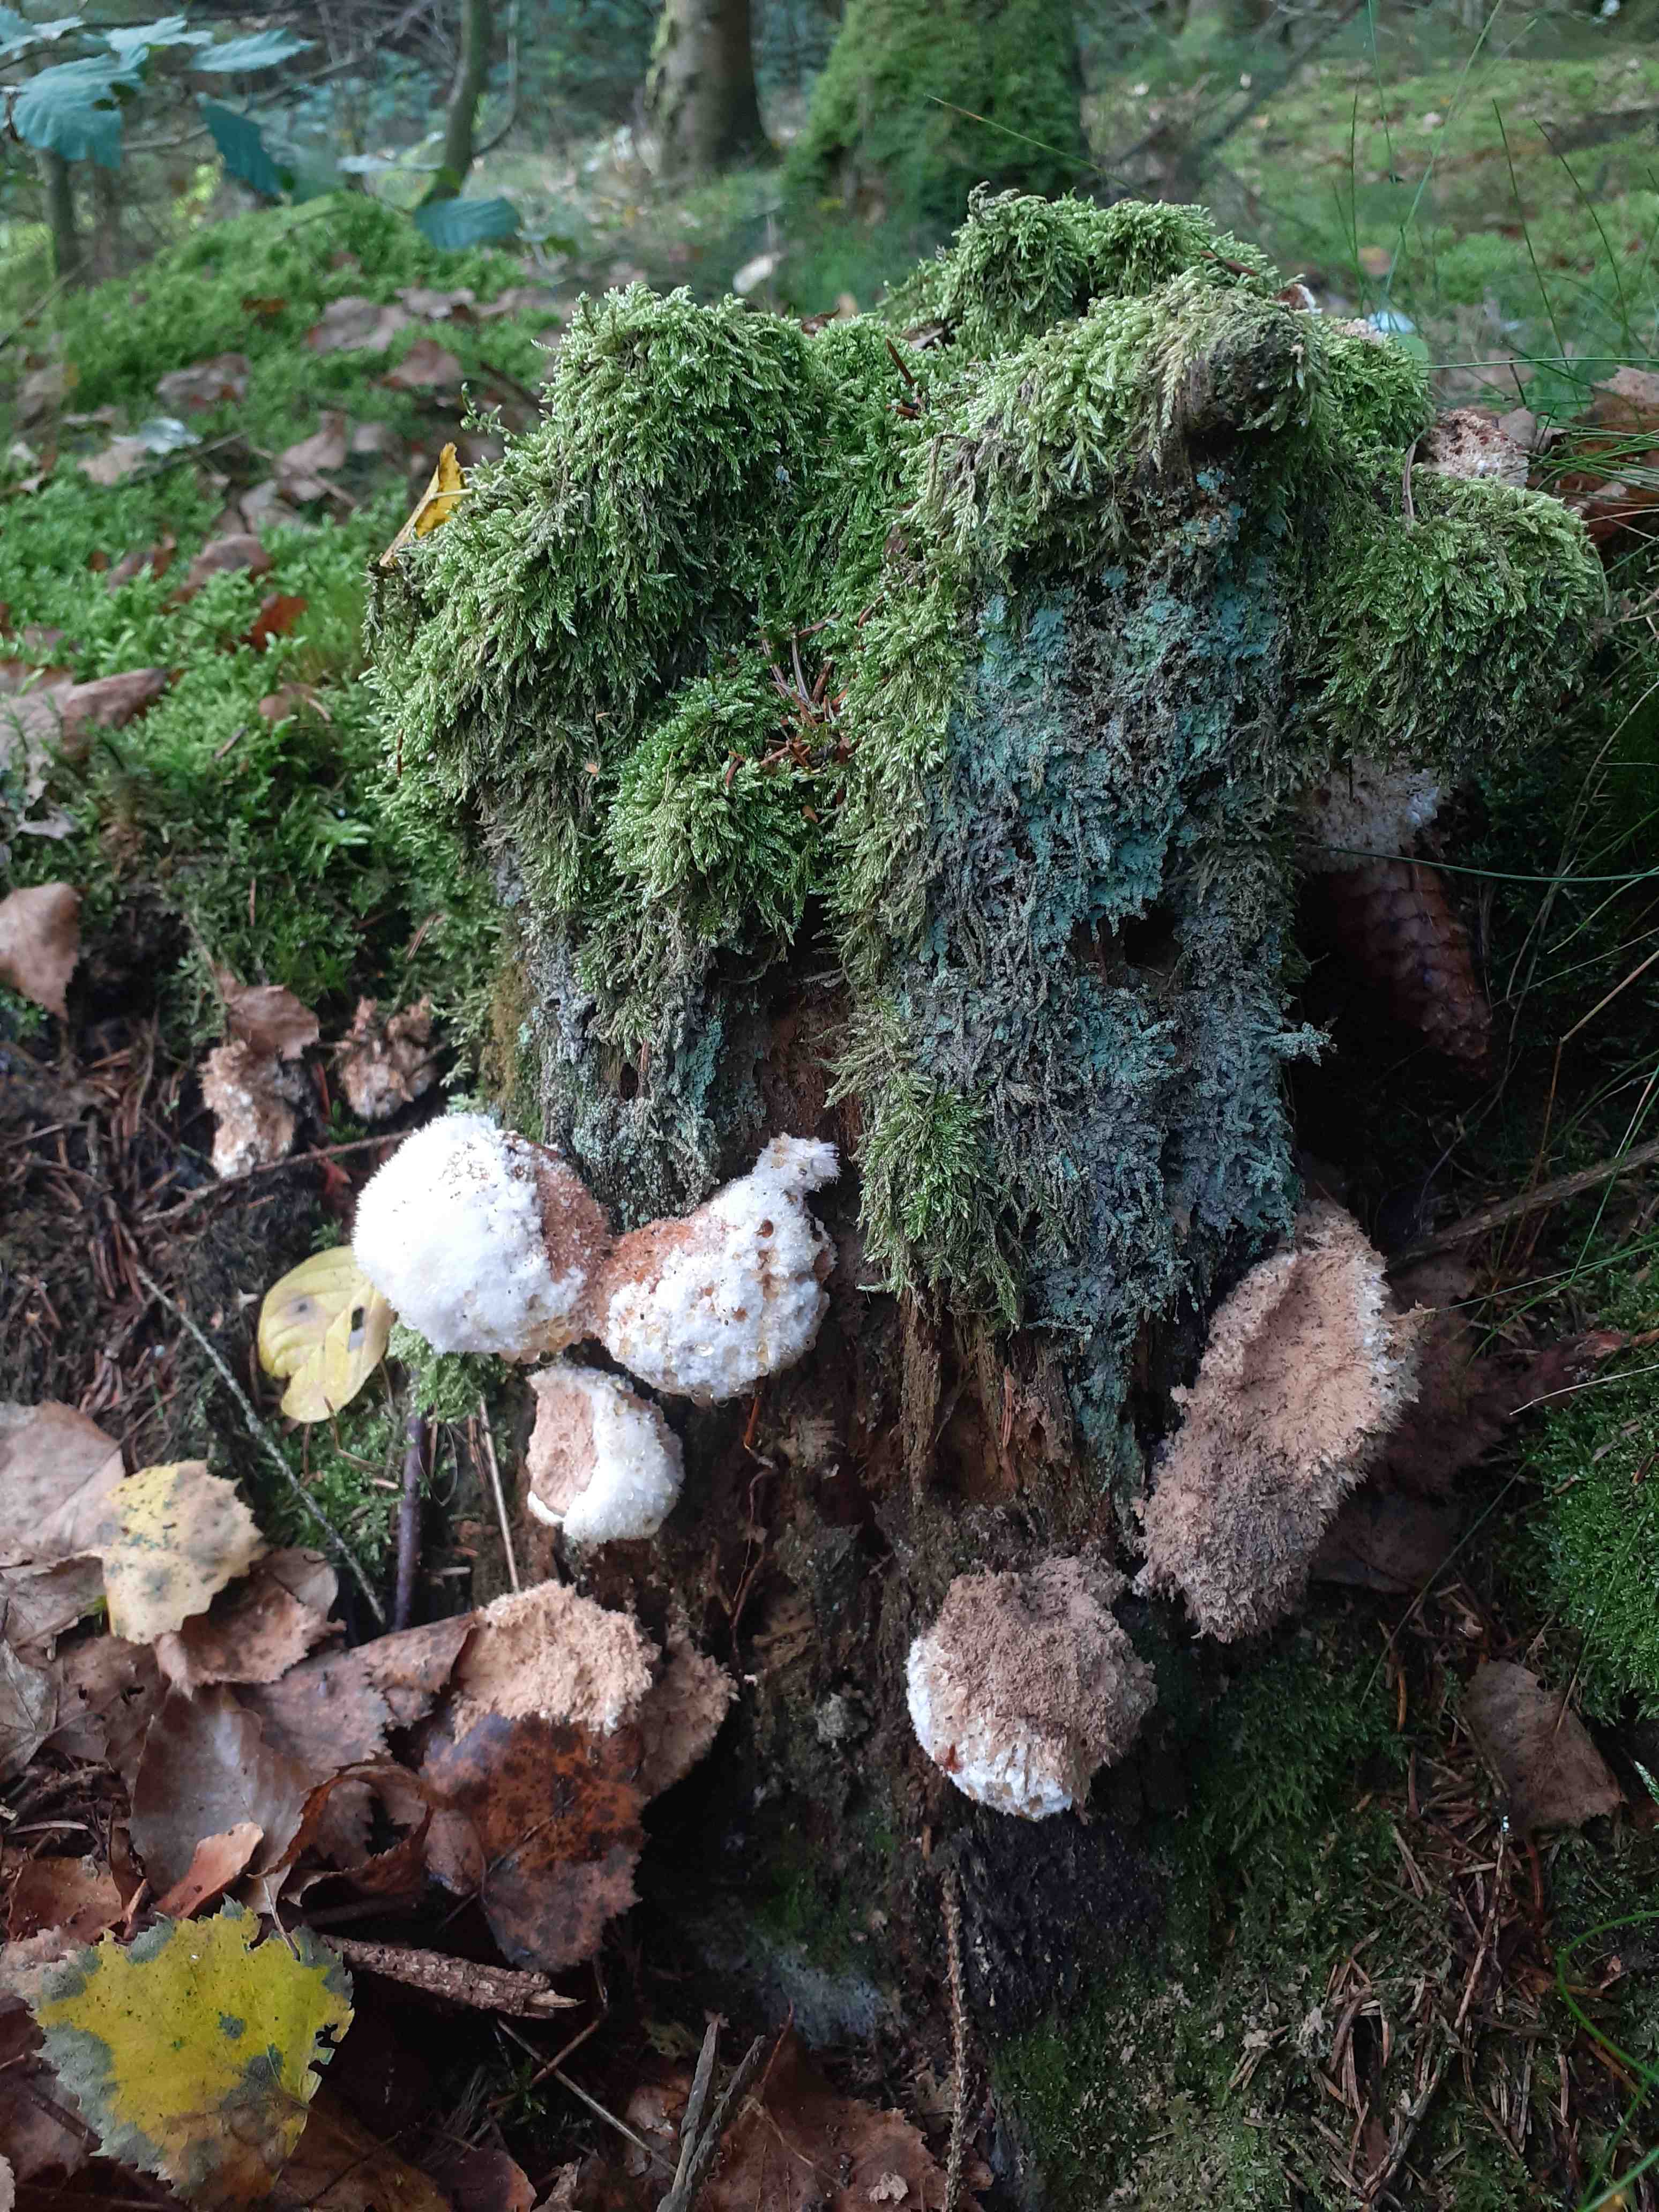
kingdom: Fungi
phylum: Basidiomycota
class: Agaricomycetes
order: Polyporales
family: Dacryobolaceae
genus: Postia
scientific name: Postia ptychogaster
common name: støvende kødporesvamp
